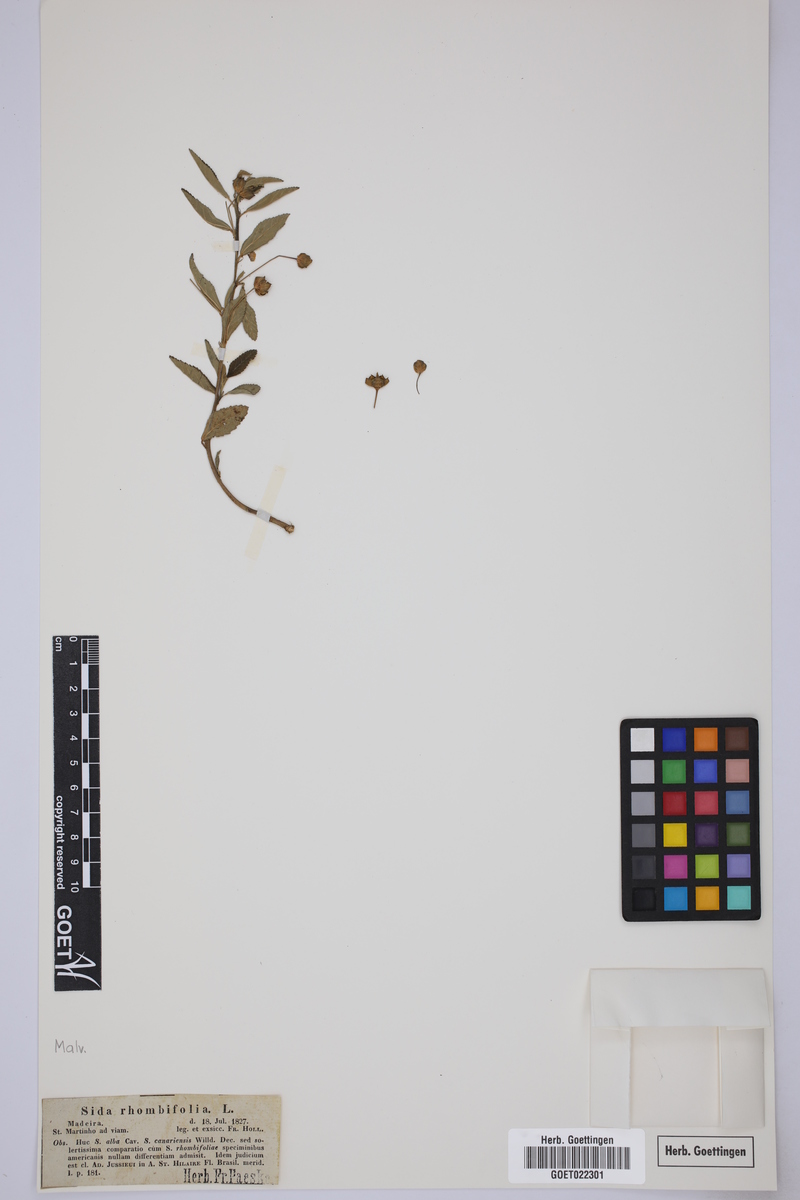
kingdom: Plantae
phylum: Tracheophyta
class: Magnoliopsida
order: Malvales
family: Malvaceae
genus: Sida
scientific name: Sida rhombifolia
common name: Queensland-hemp
